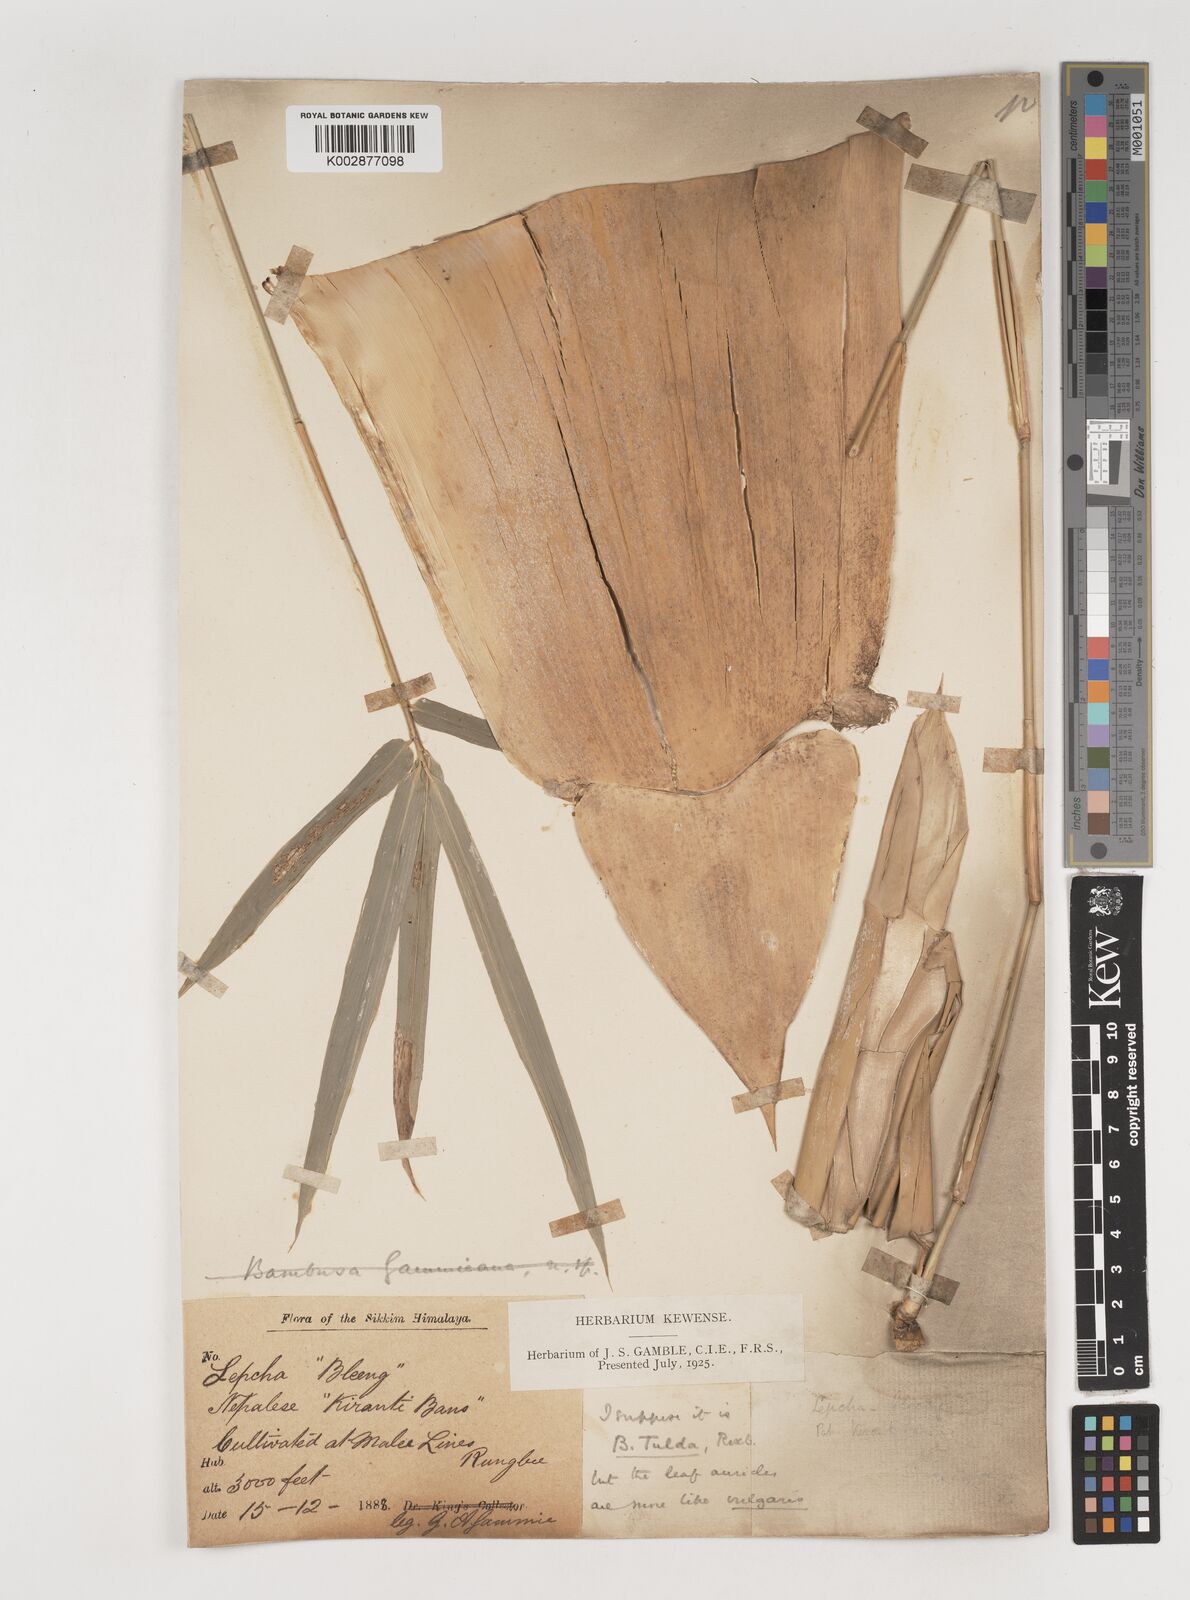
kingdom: Plantae
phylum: Tracheophyta
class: Liliopsida
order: Poales
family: Poaceae
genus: Bambusa
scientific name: Bambusa
